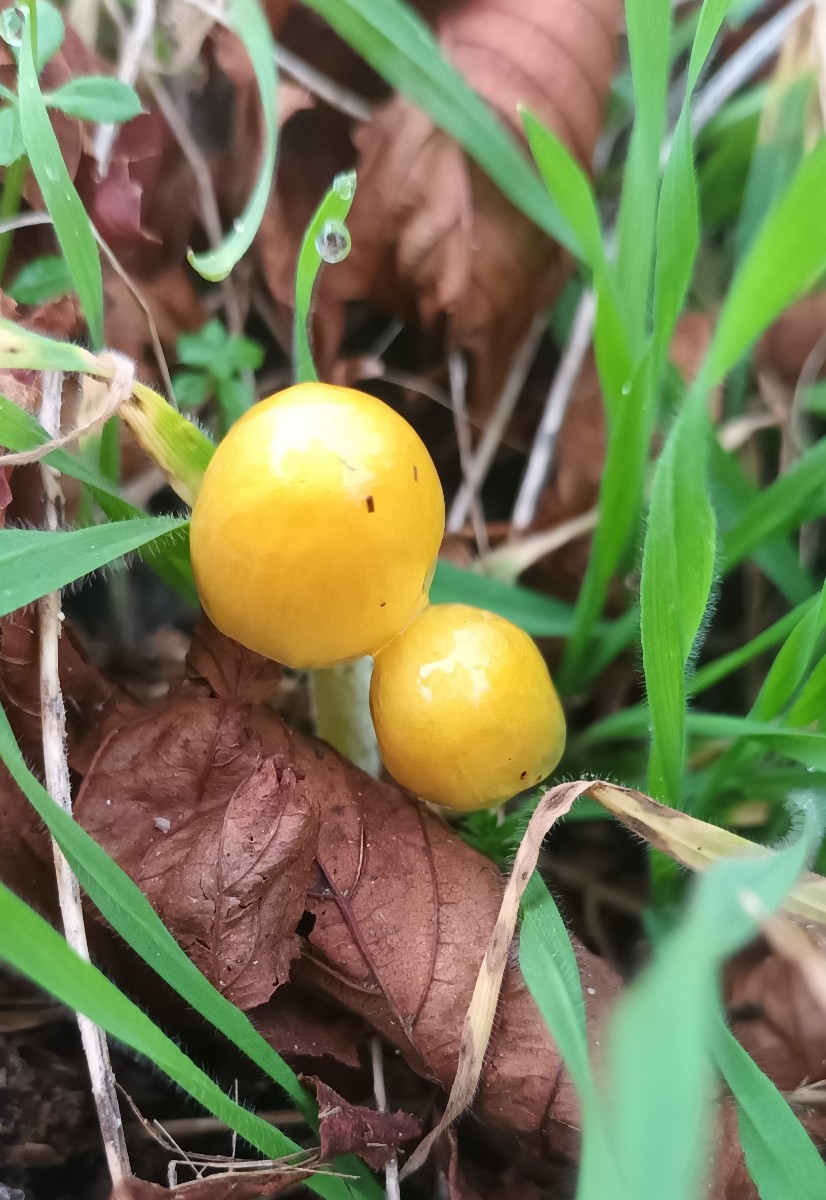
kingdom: Fungi
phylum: Basidiomycota
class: Agaricomycetes
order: Agaricales
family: Bolbitiaceae
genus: Bolbitius
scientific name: Bolbitius titubans
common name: almindelig gulhat
